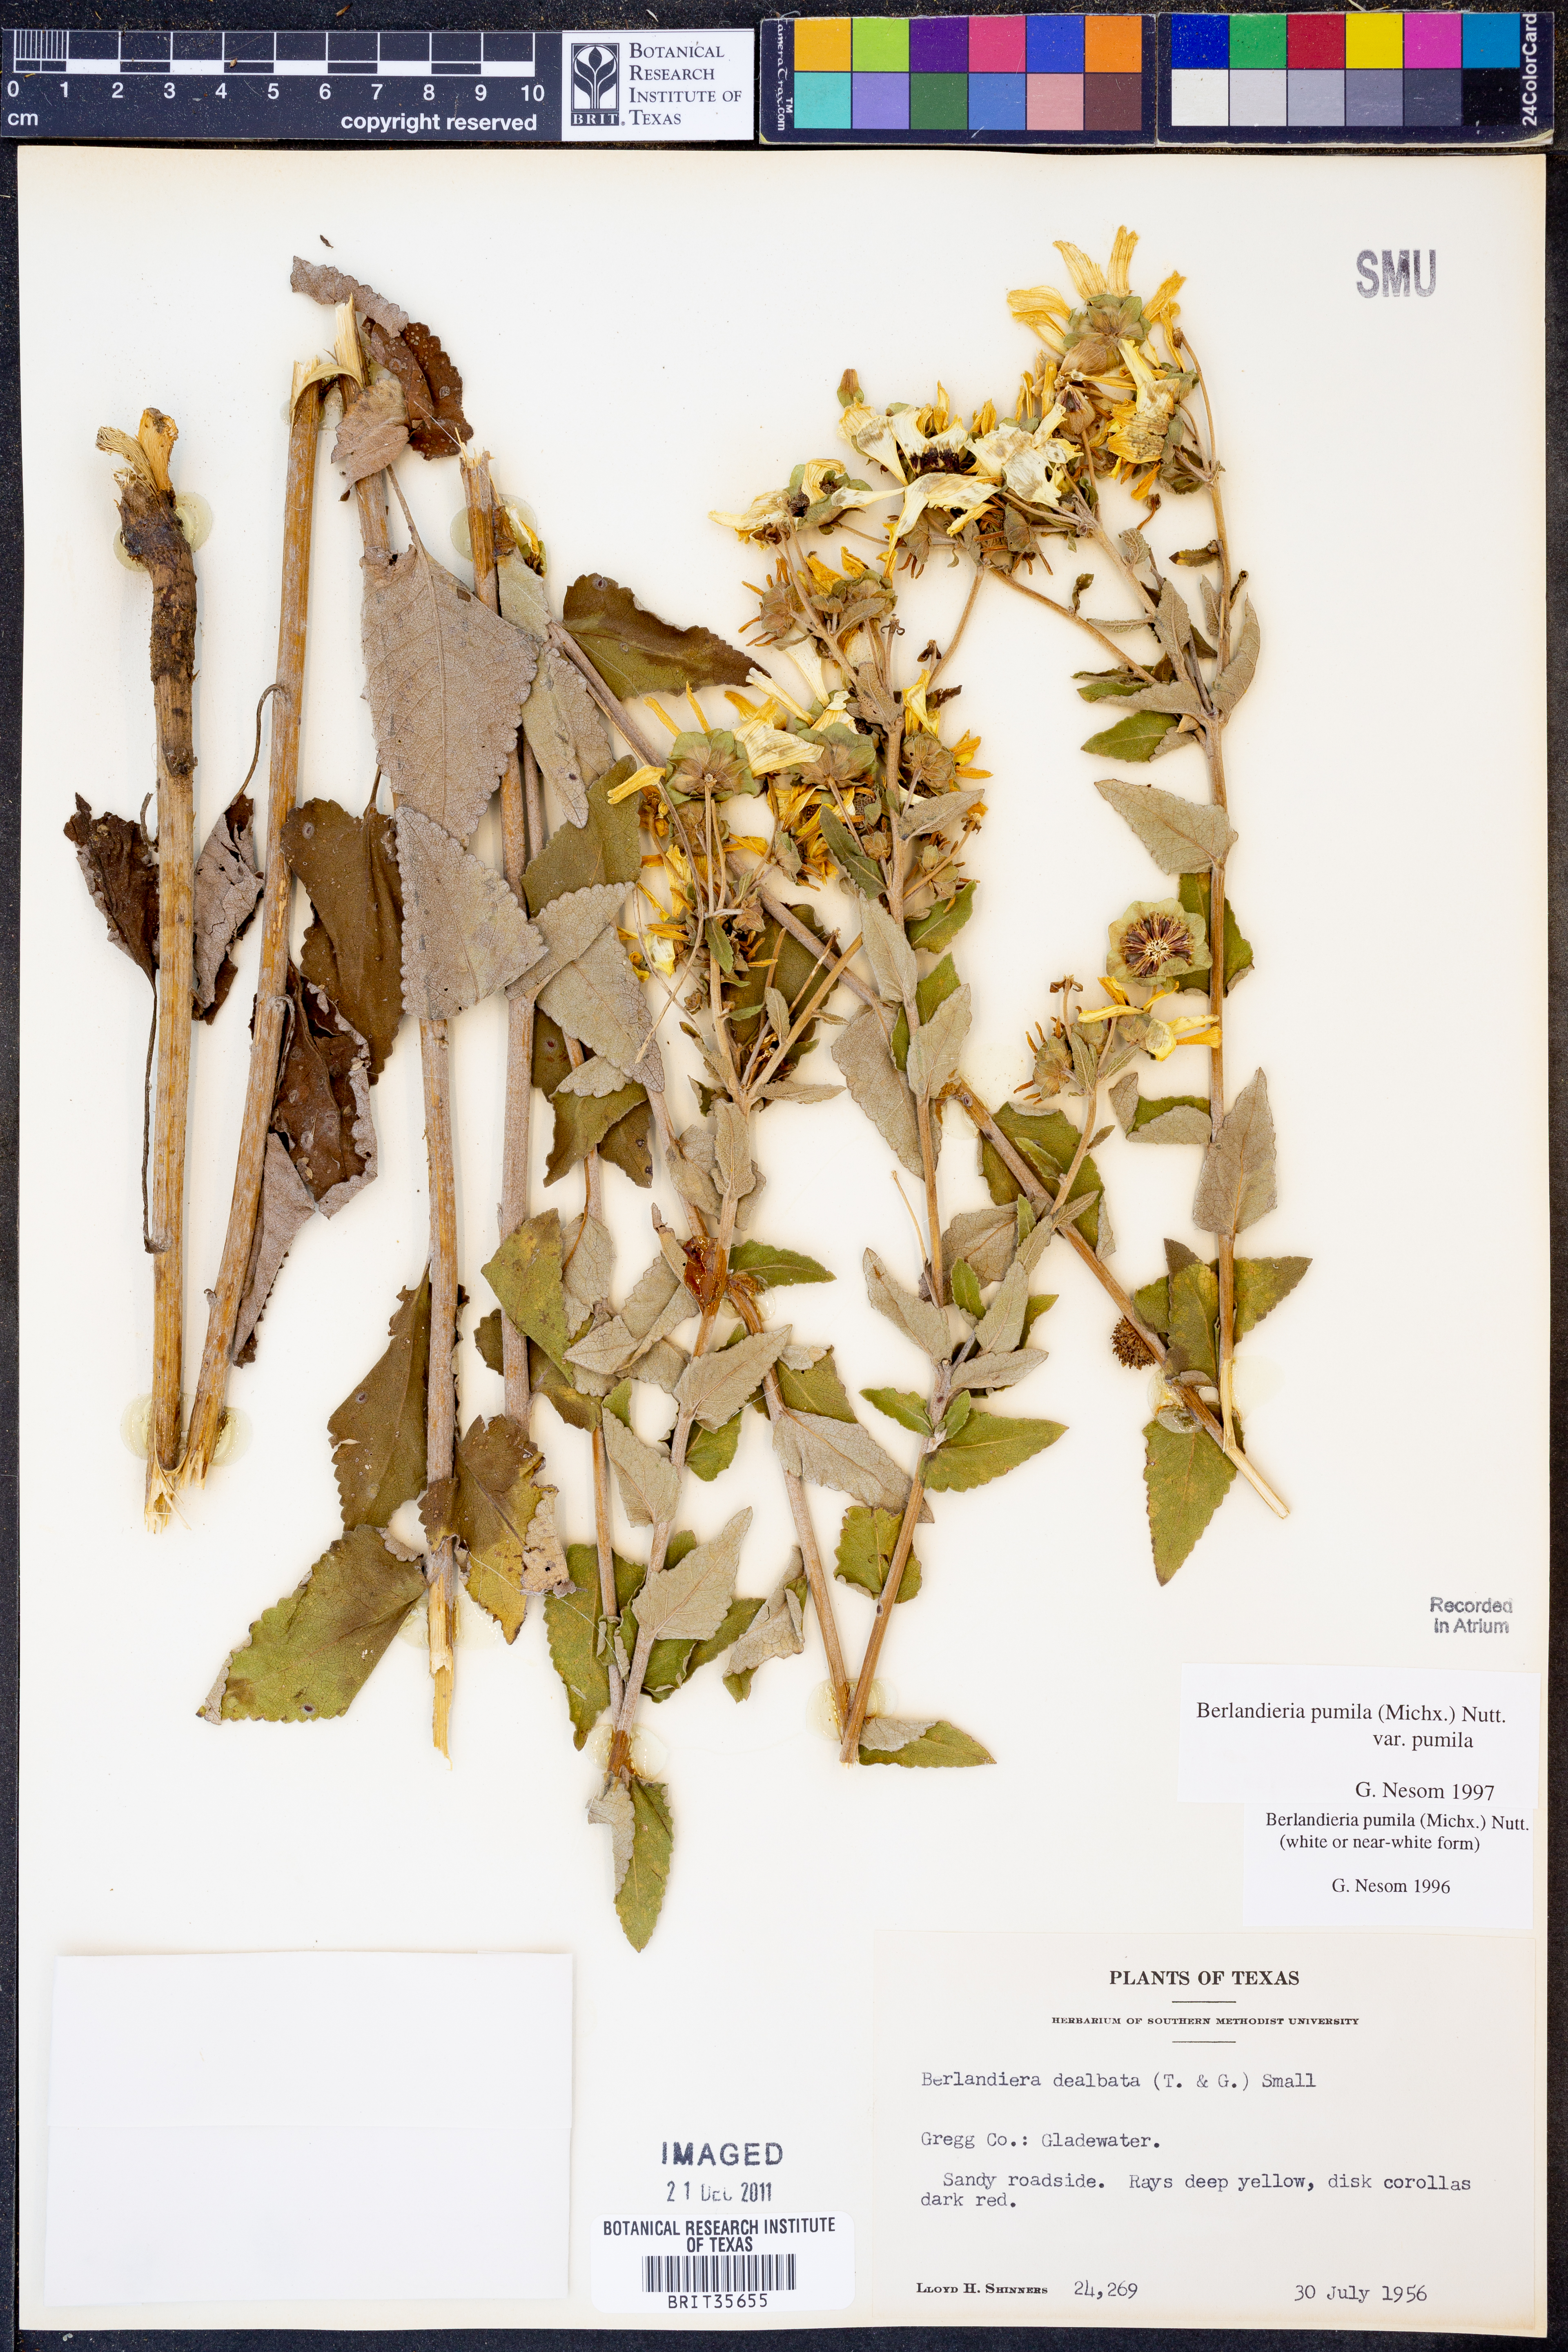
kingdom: Plantae
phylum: Tracheophyta
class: Magnoliopsida
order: Asterales
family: Asteraceae
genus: Berlandiera
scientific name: Berlandiera pumila
